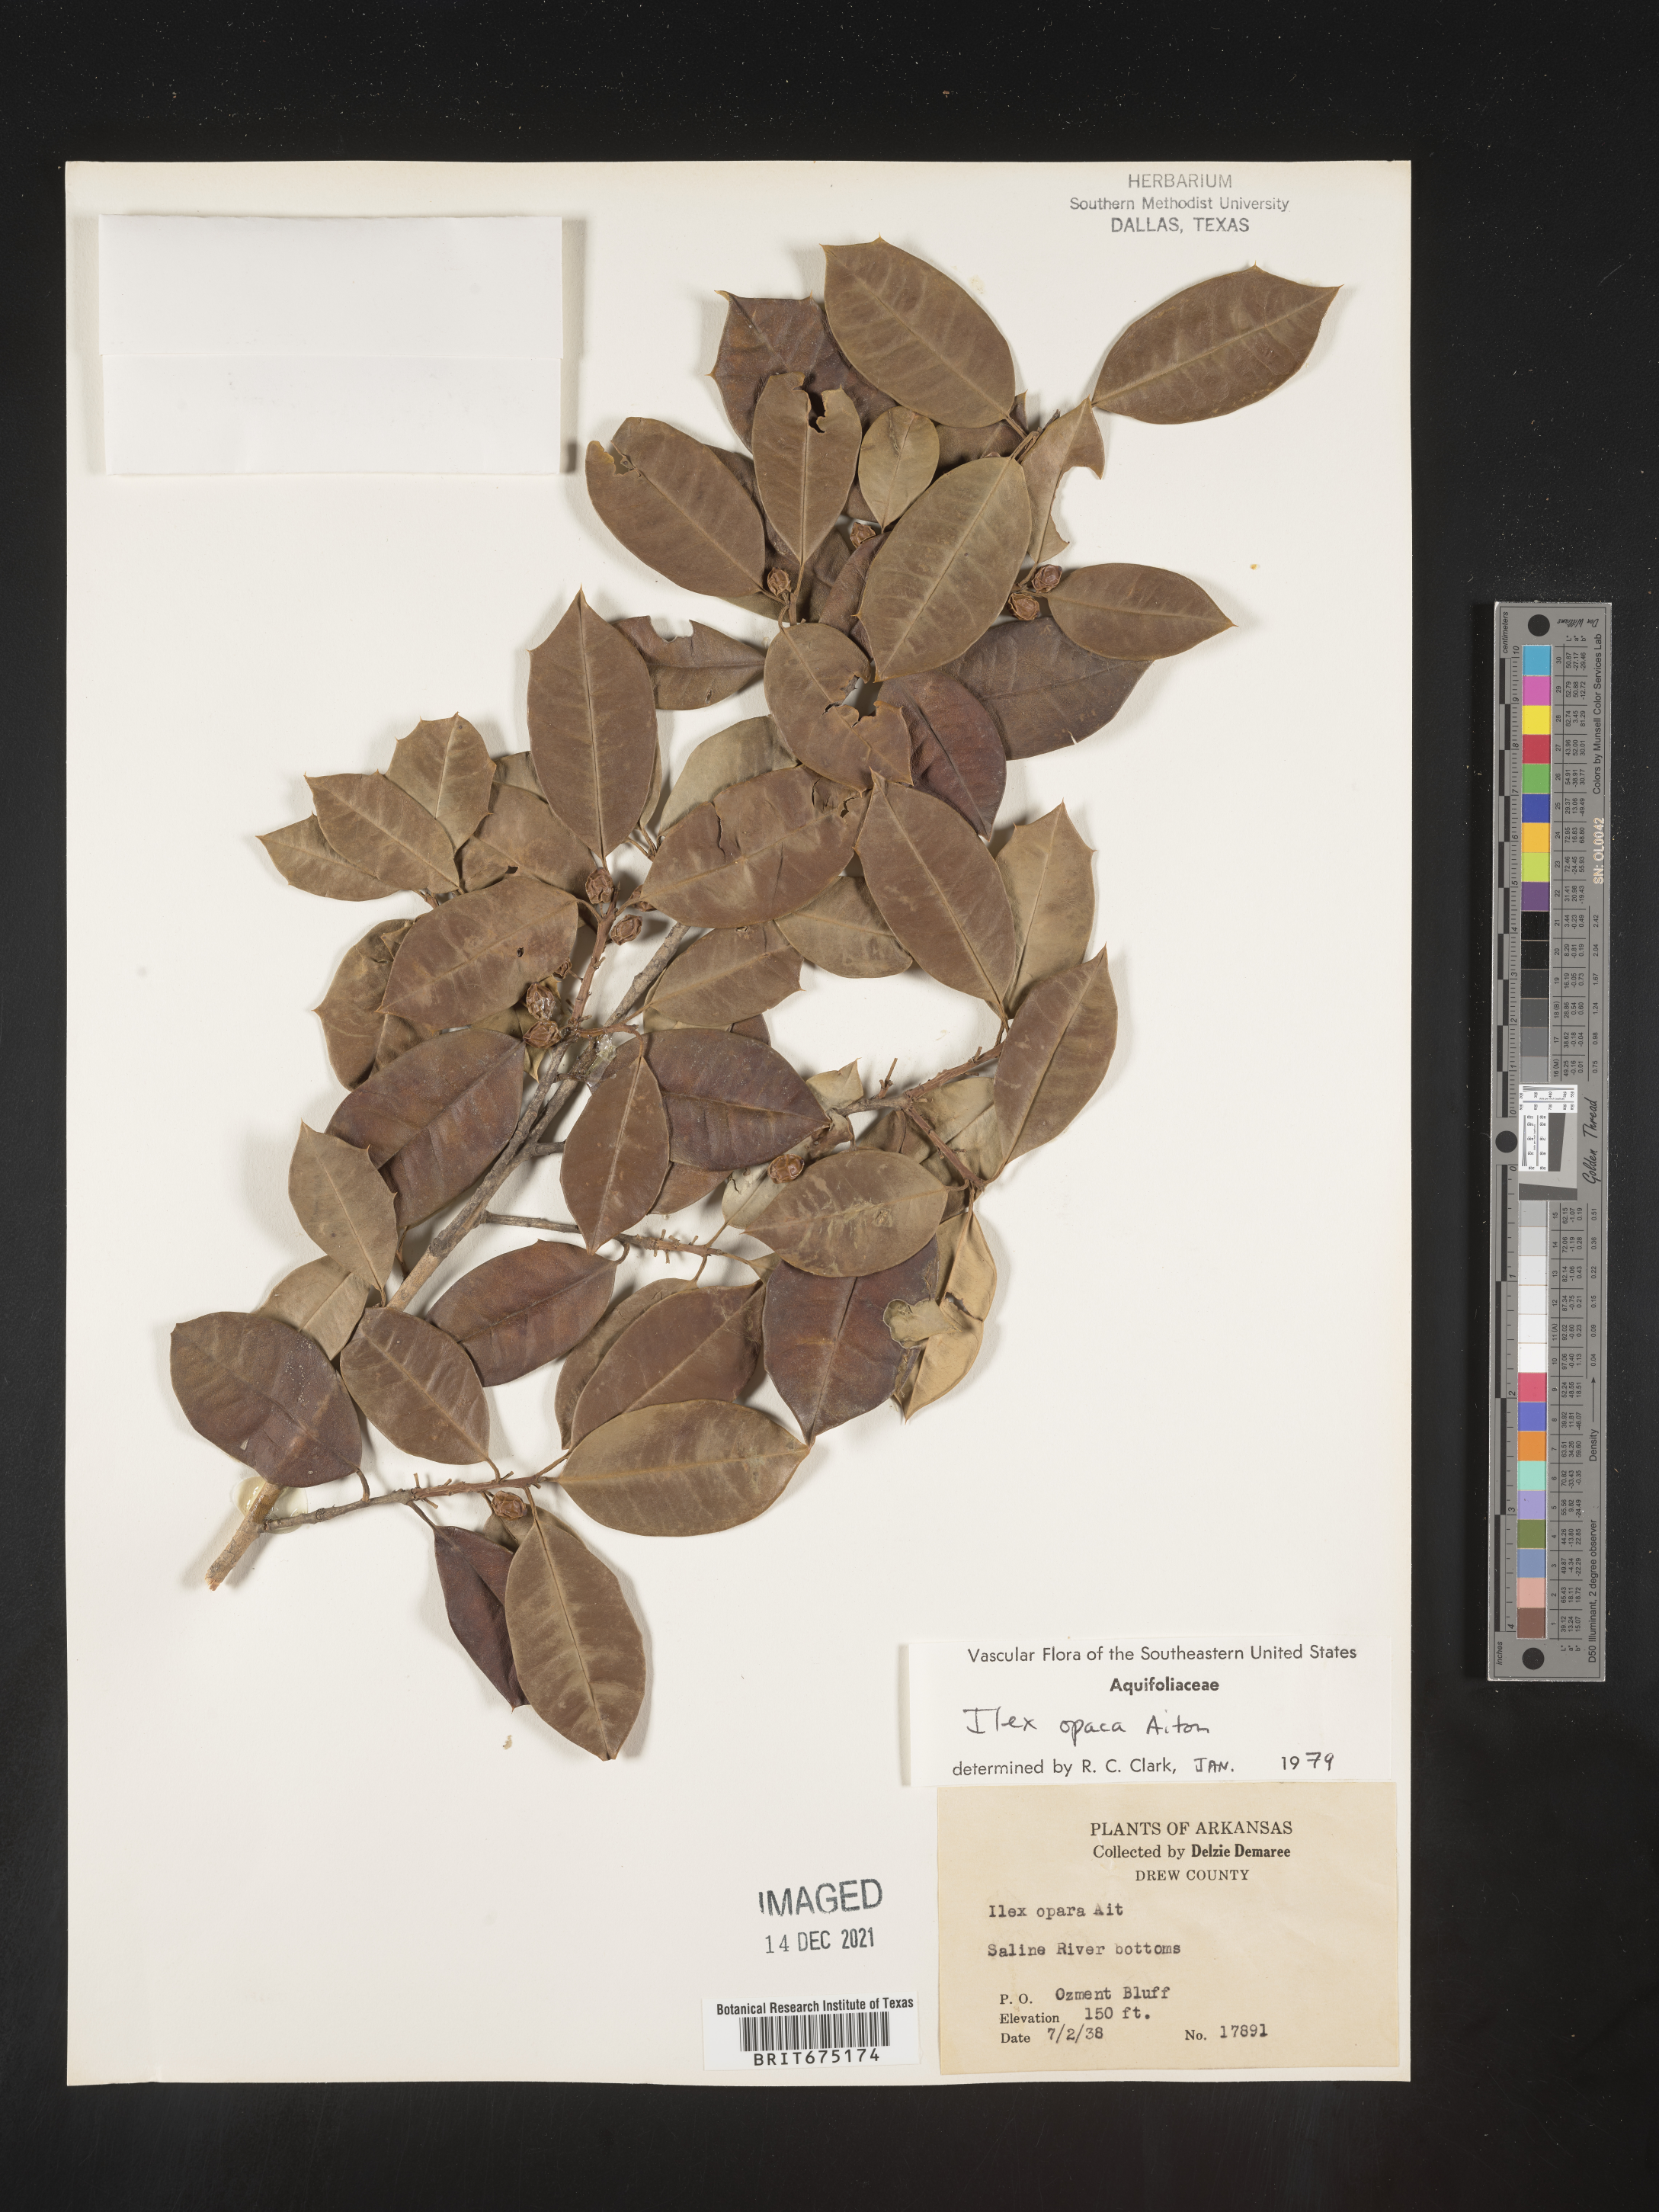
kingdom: Plantae
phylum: Tracheophyta
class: Magnoliopsida
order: Aquifoliales
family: Aquifoliaceae
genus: Ilex
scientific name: Ilex opaca
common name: American holly
